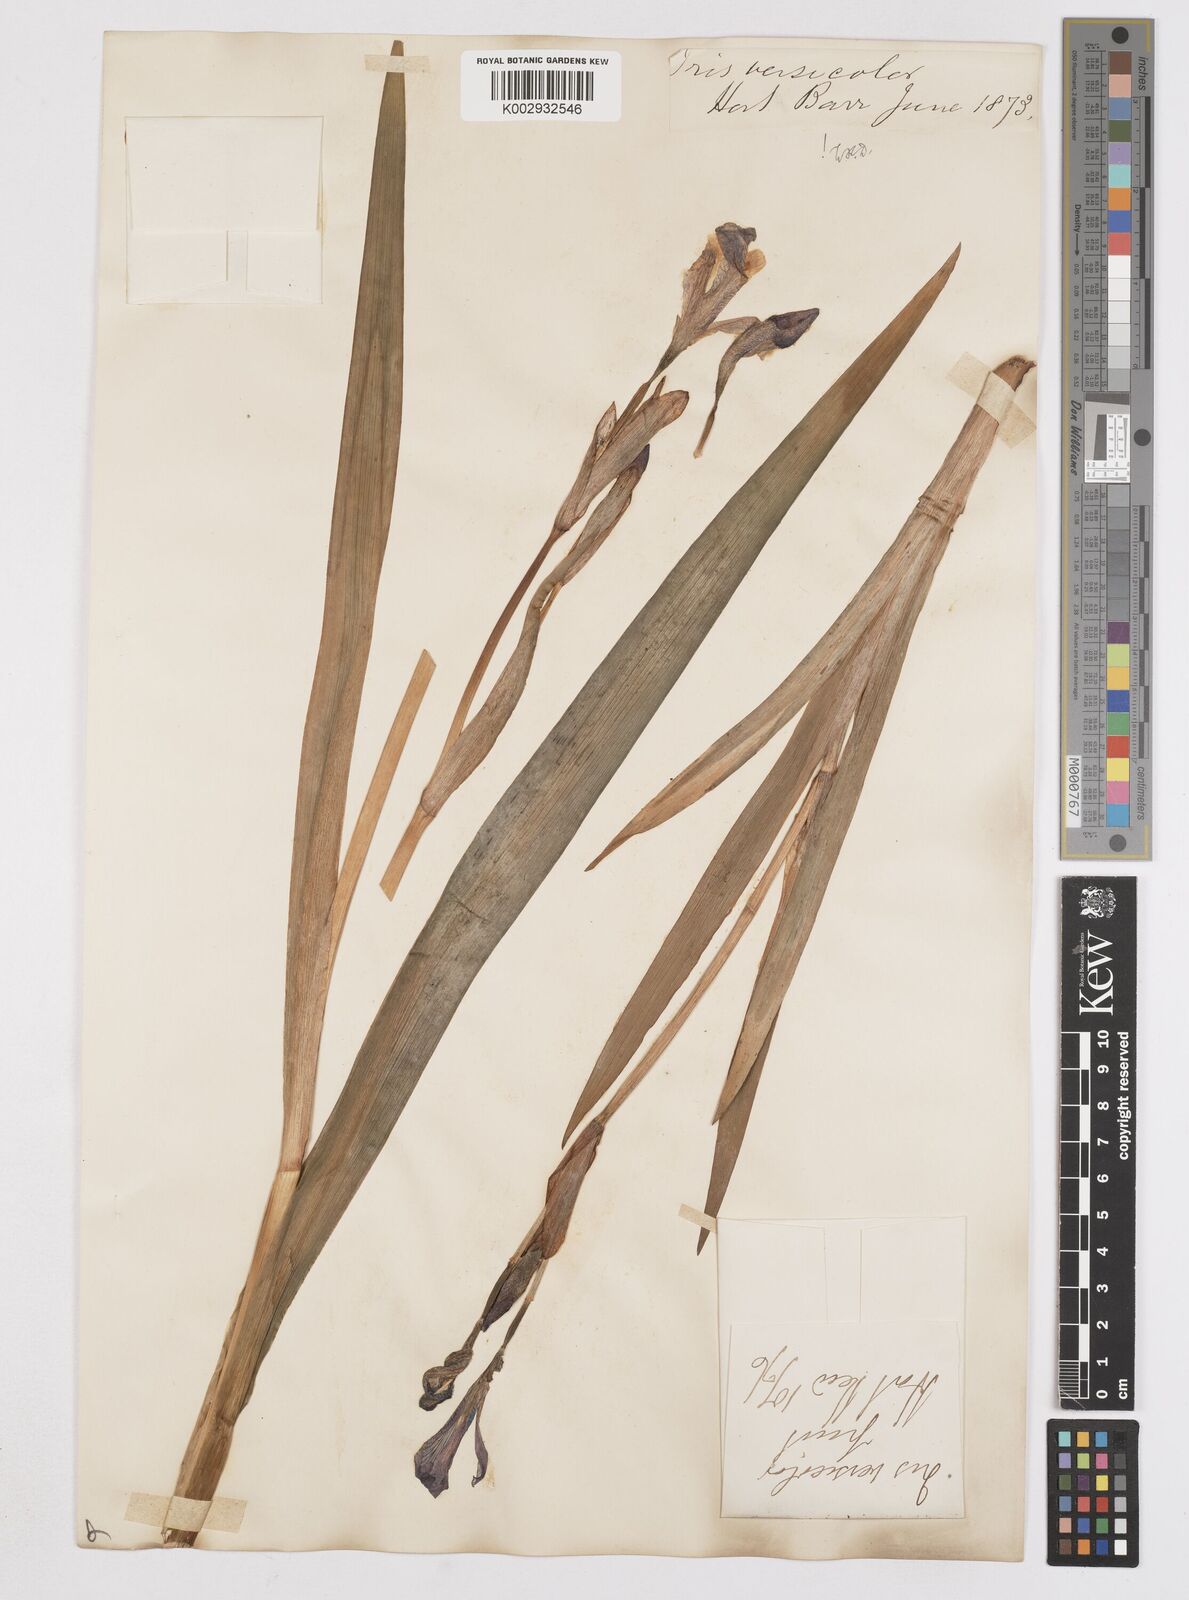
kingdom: Plantae
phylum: Tracheophyta
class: Liliopsida
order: Asparagales
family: Iridaceae
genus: Iris
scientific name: Iris versicolor
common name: Purple iris
